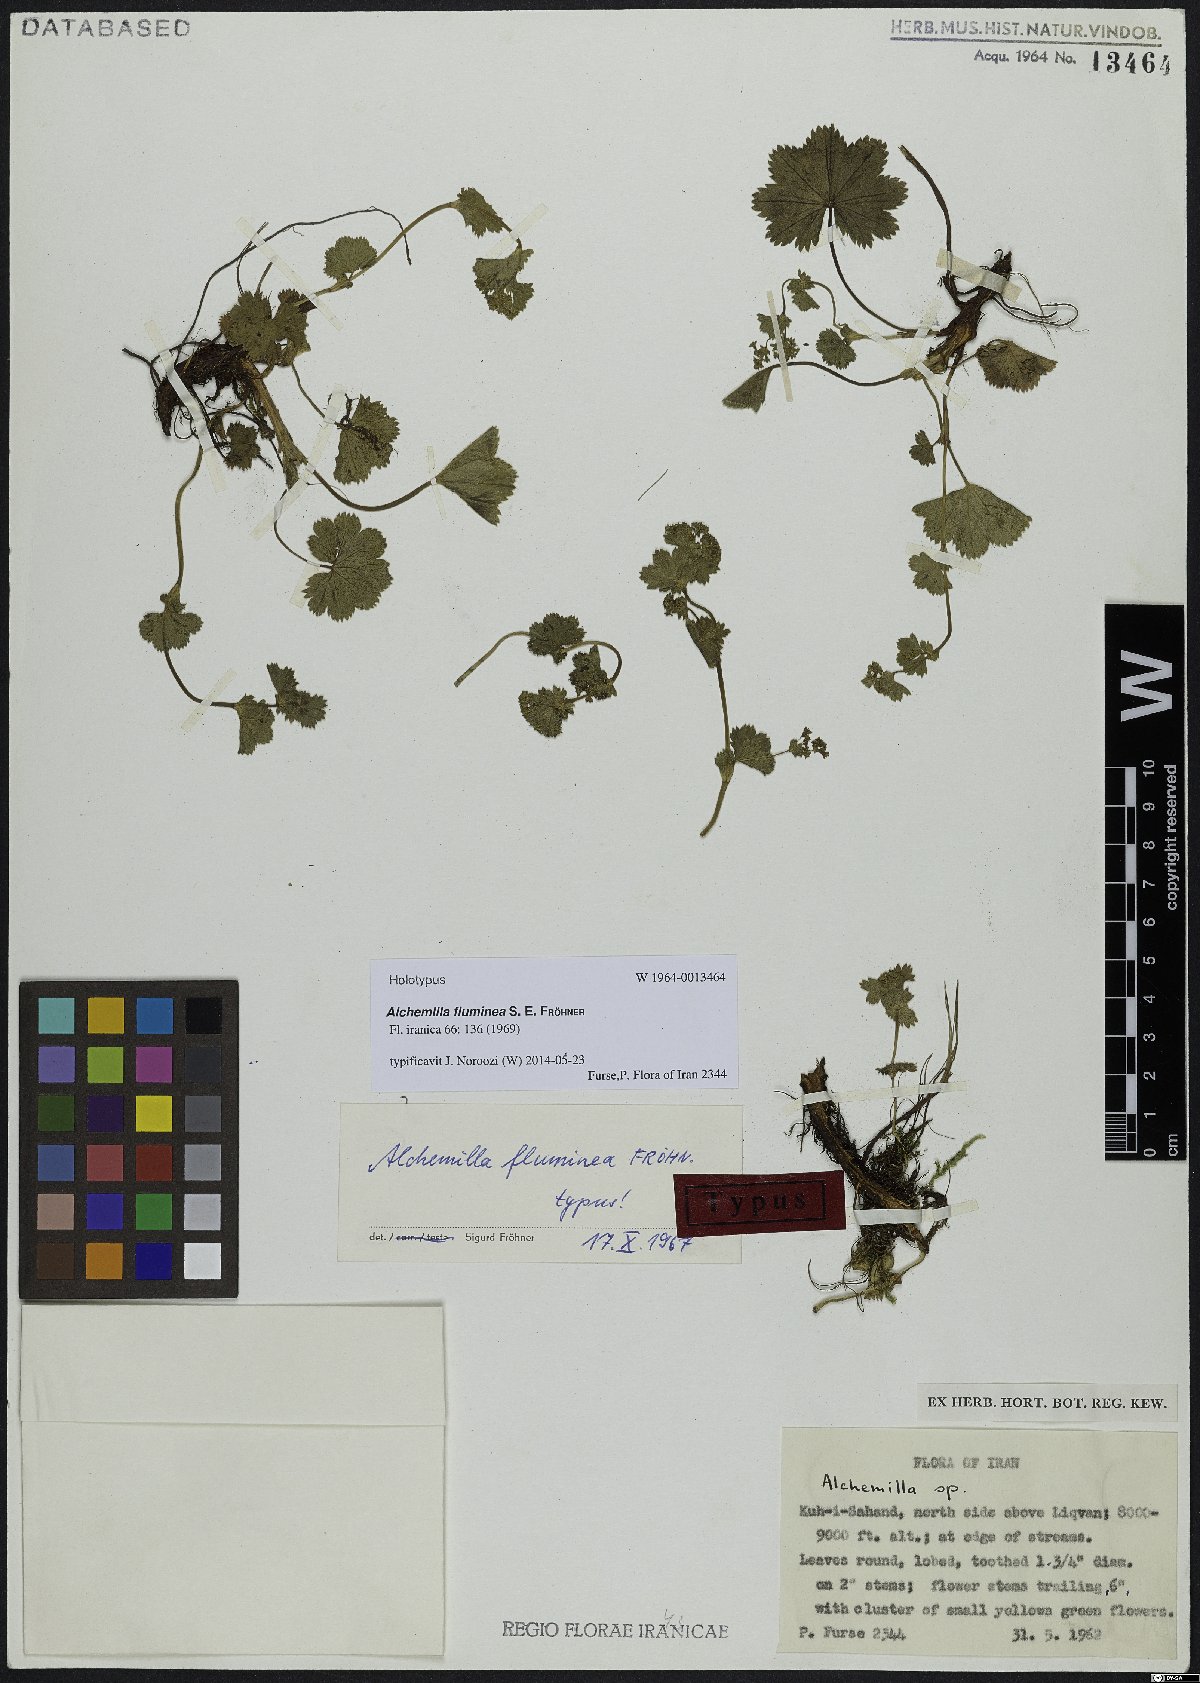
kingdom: Plantae
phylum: Tracheophyta
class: Magnoliopsida
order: Rosales
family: Rosaceae
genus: Alchemilla
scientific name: Alchemilla fluminea
